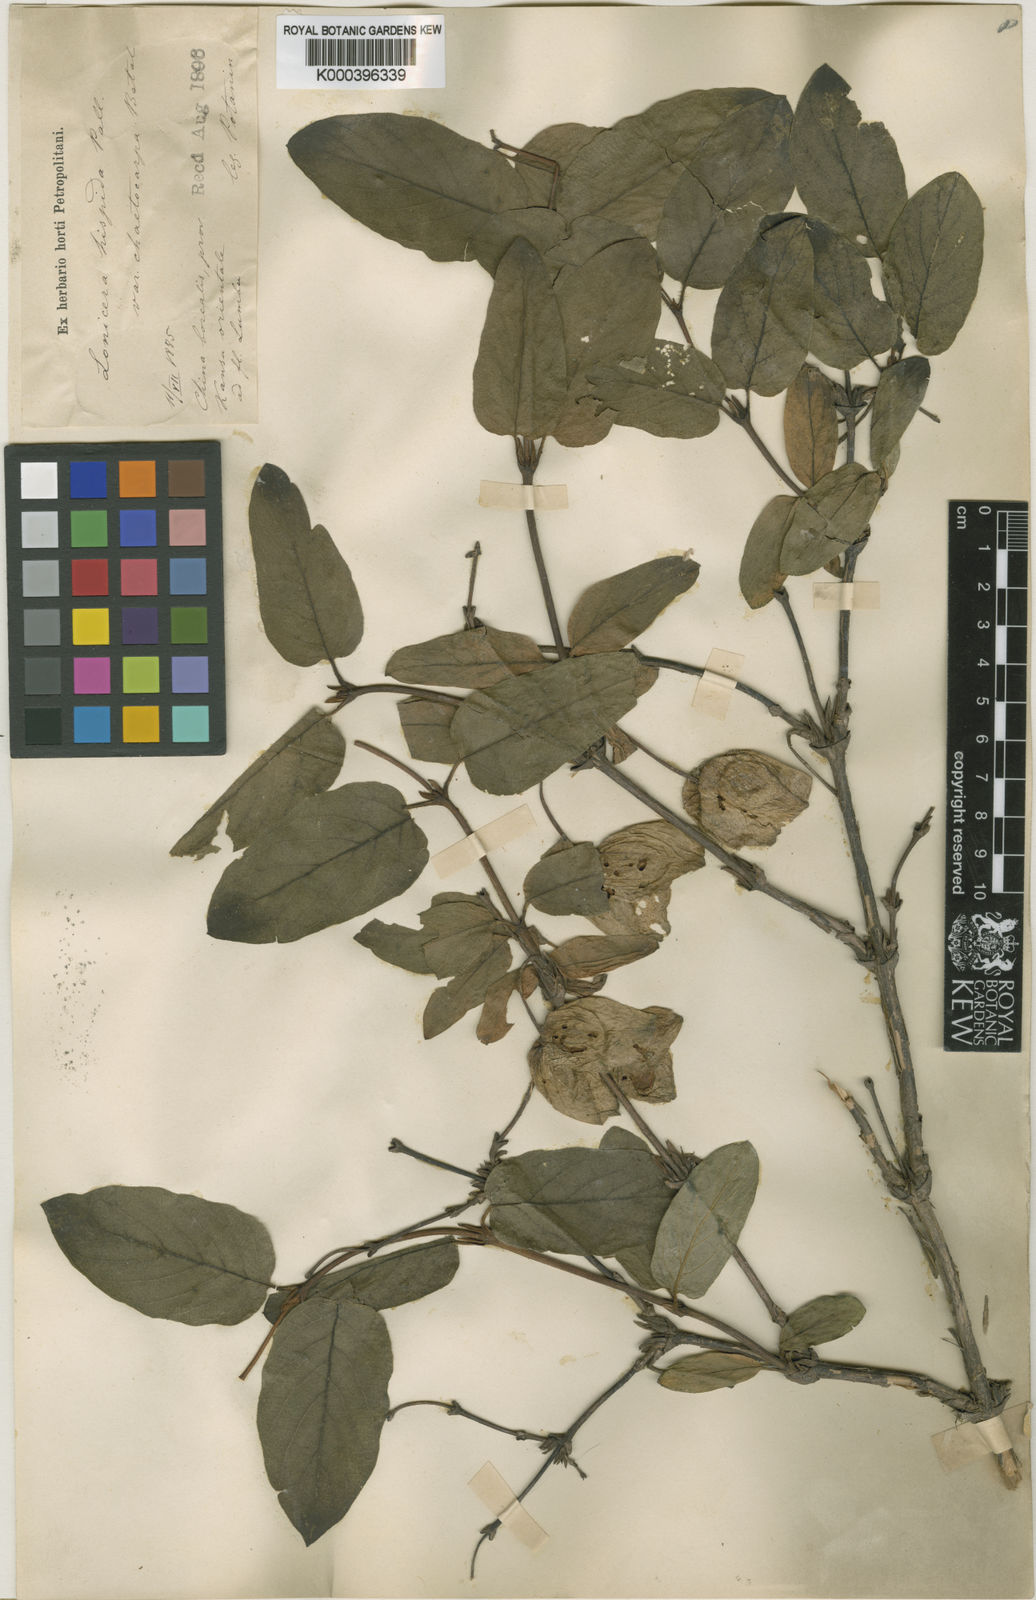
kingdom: Plantae
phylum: Tracheophyta
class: Magnoliopsida
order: Dipsacales
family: Caprifoliaceae
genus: Lonicera
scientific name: Lonicera hispida
